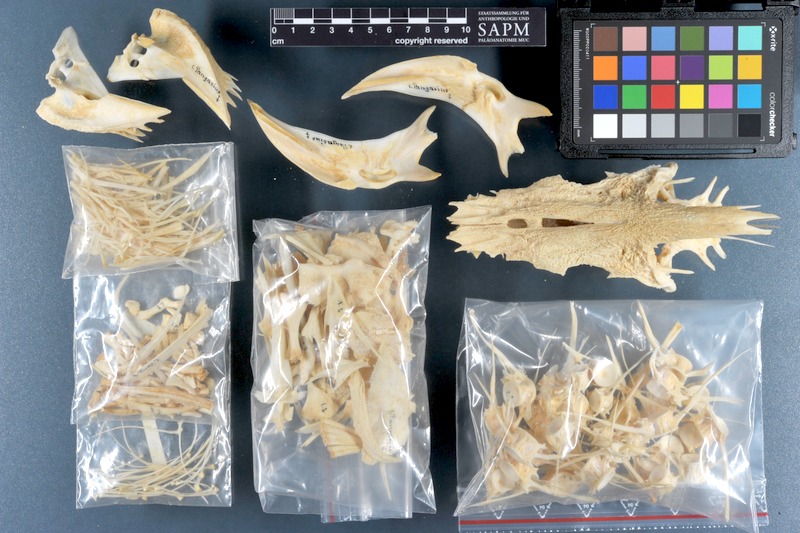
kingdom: Animalia
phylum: Chordata
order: Siluriformes
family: Pangasiidae
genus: Pangasius
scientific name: Pangasius
